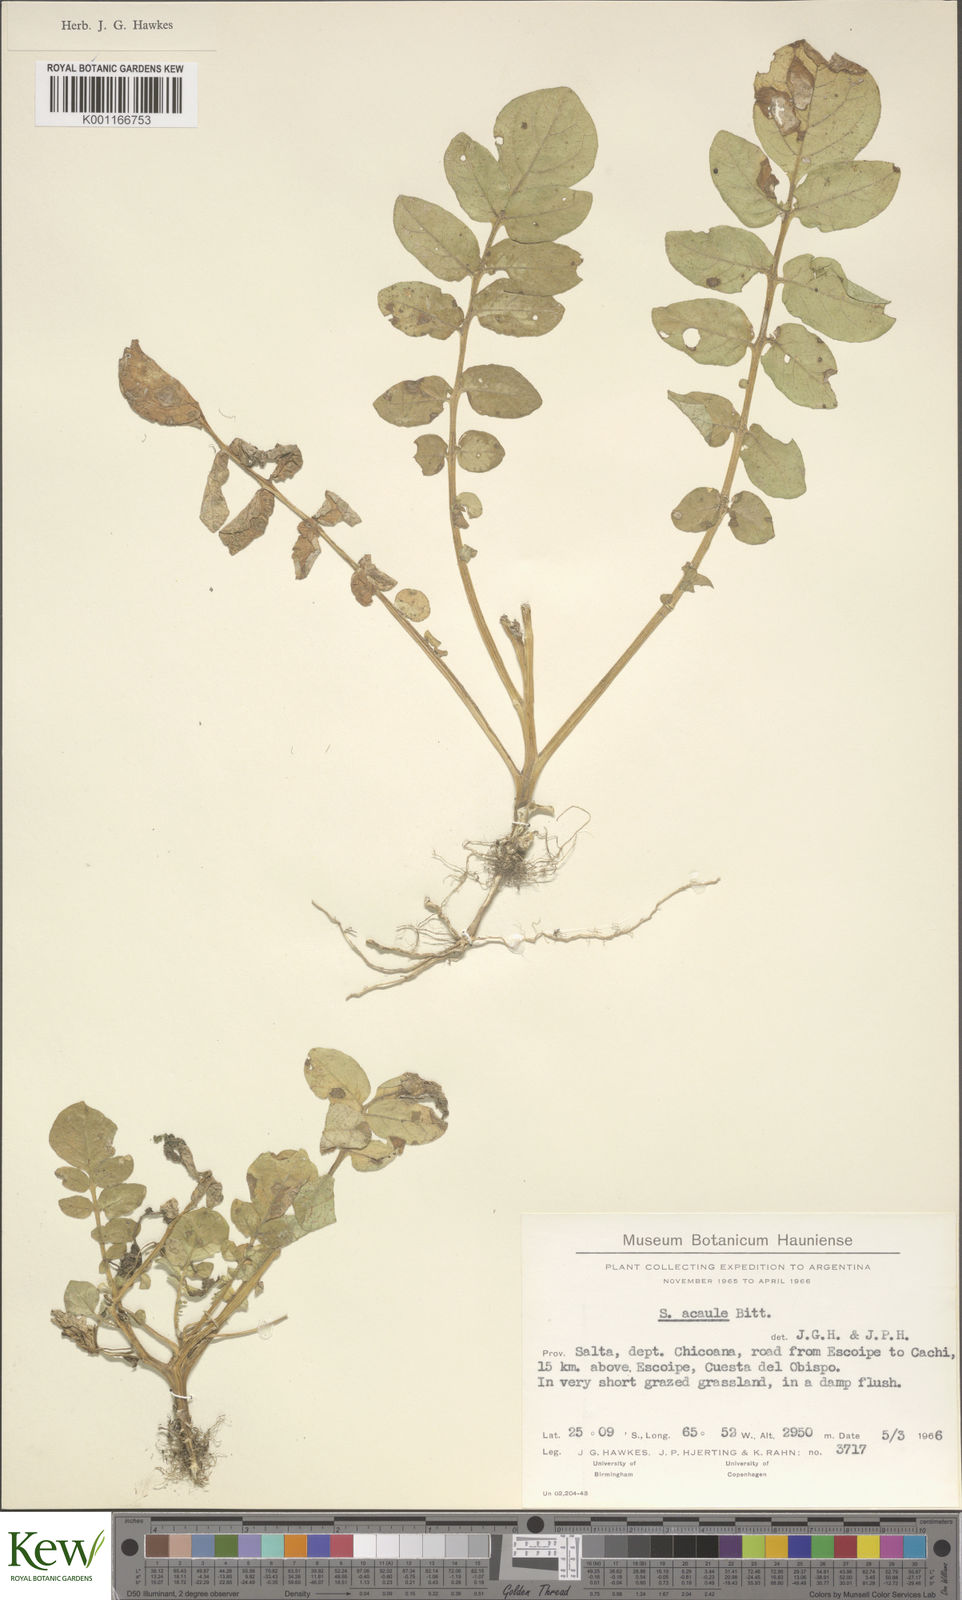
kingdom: Plantae
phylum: Tracheophyta
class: Magnoliopsida
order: Solanales
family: Solanaceae
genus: Solanum
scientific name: Solanum acaule
